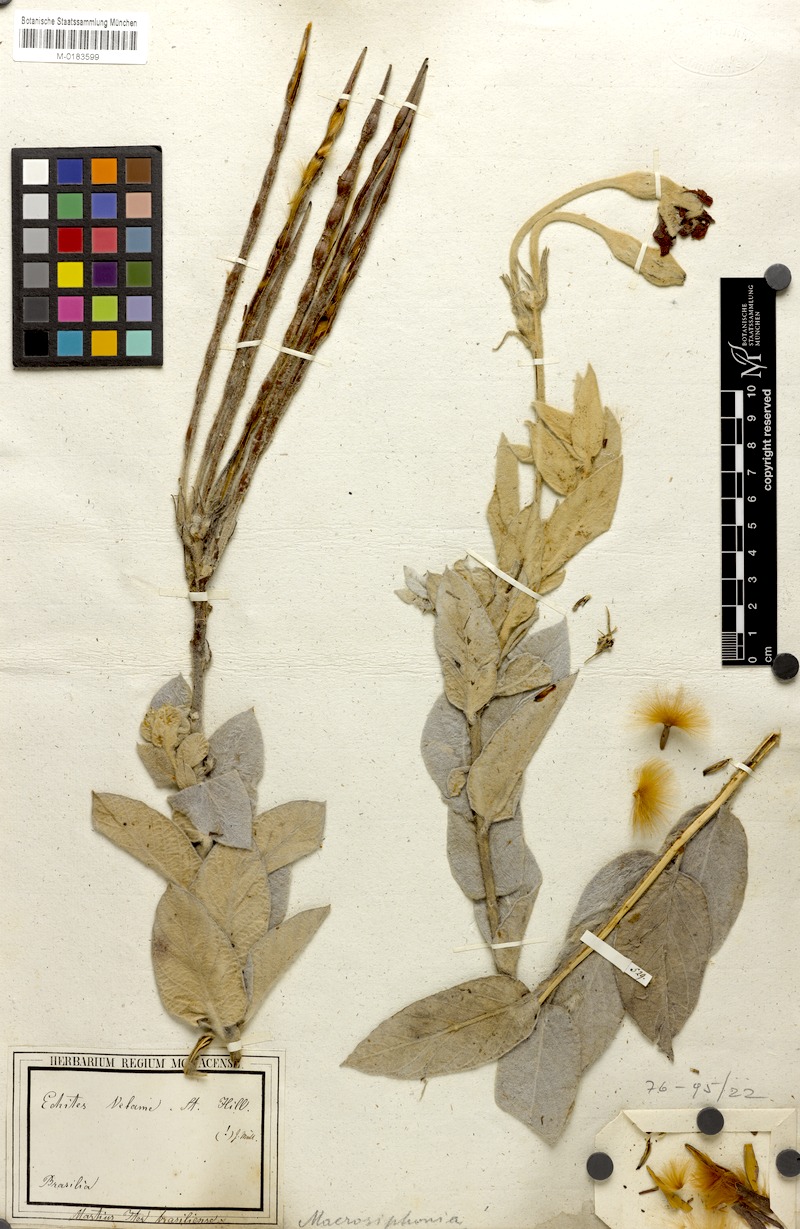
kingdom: Plantae
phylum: Tracheophyta
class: Magnoliopsida
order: Gentianales
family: Apocynaceae
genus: Mandevilla
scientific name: Mandevilla velame
